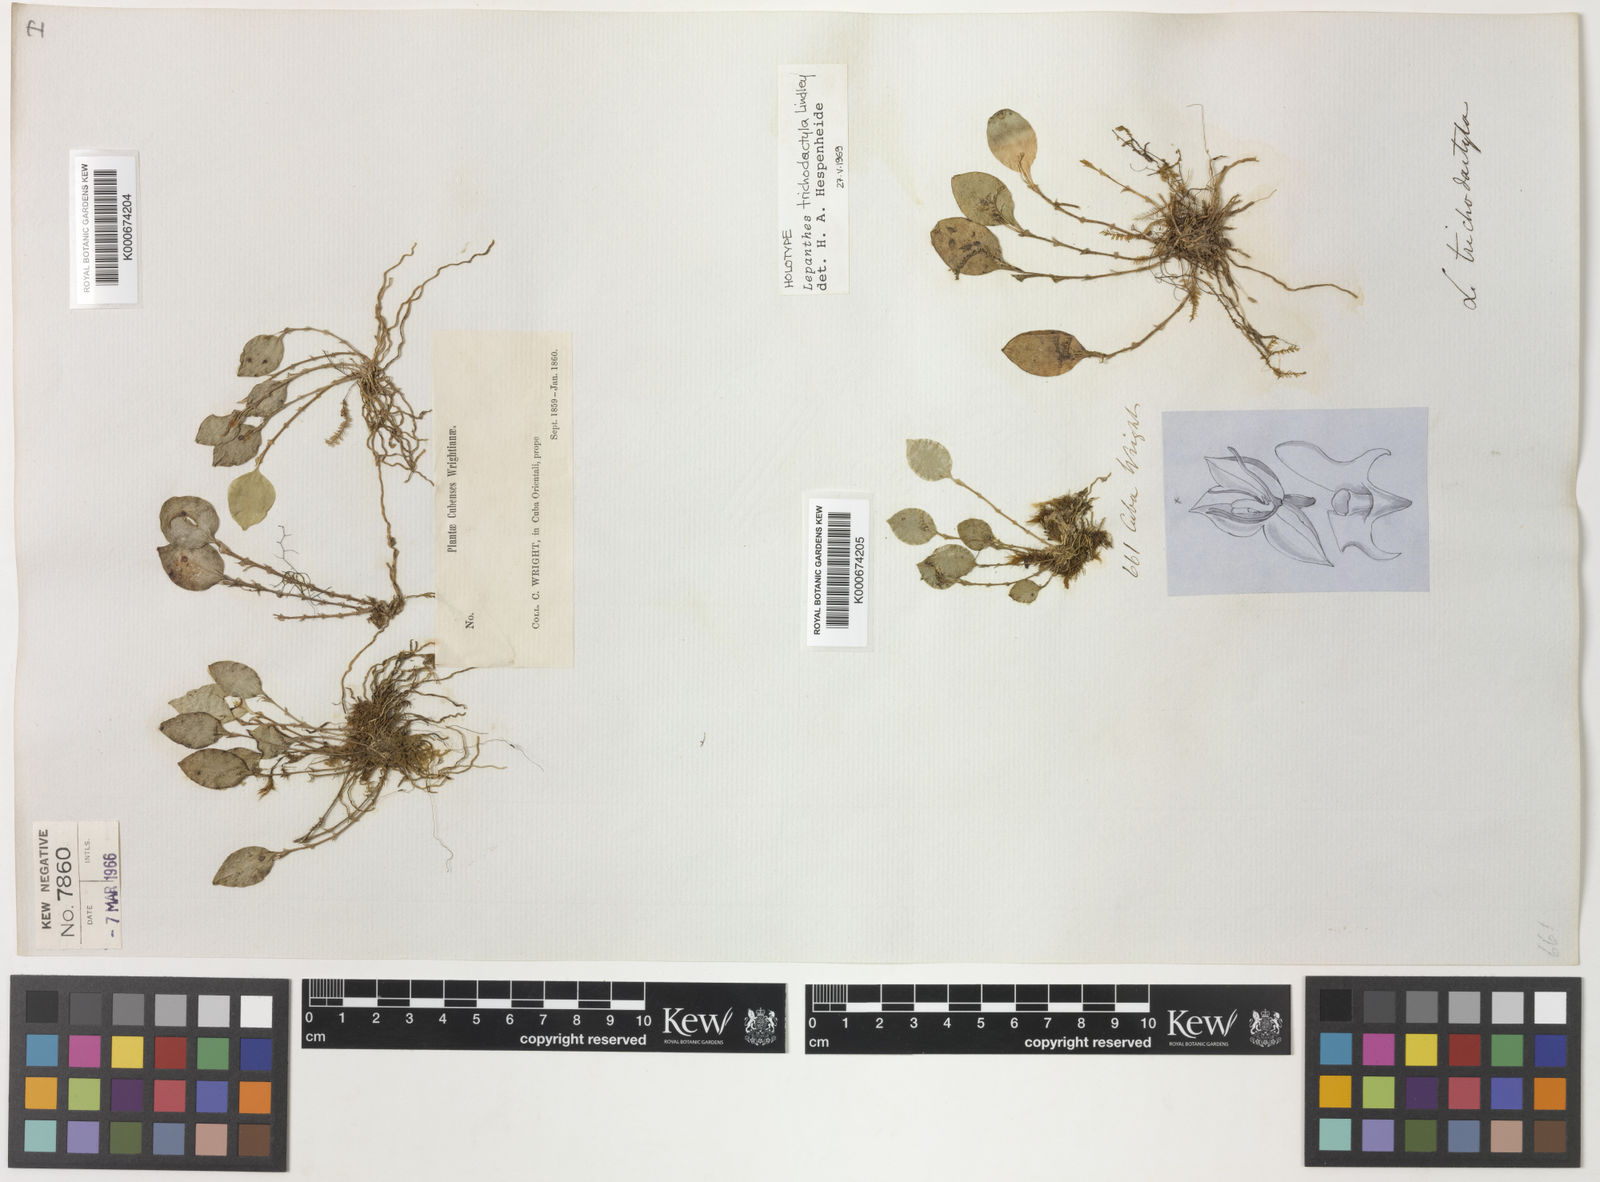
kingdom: Plantae
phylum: Tracheophyta
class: Liliopsida
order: Asparagales
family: Orchidaceae
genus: Lepanthes
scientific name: Lepanthes trichodactyla
